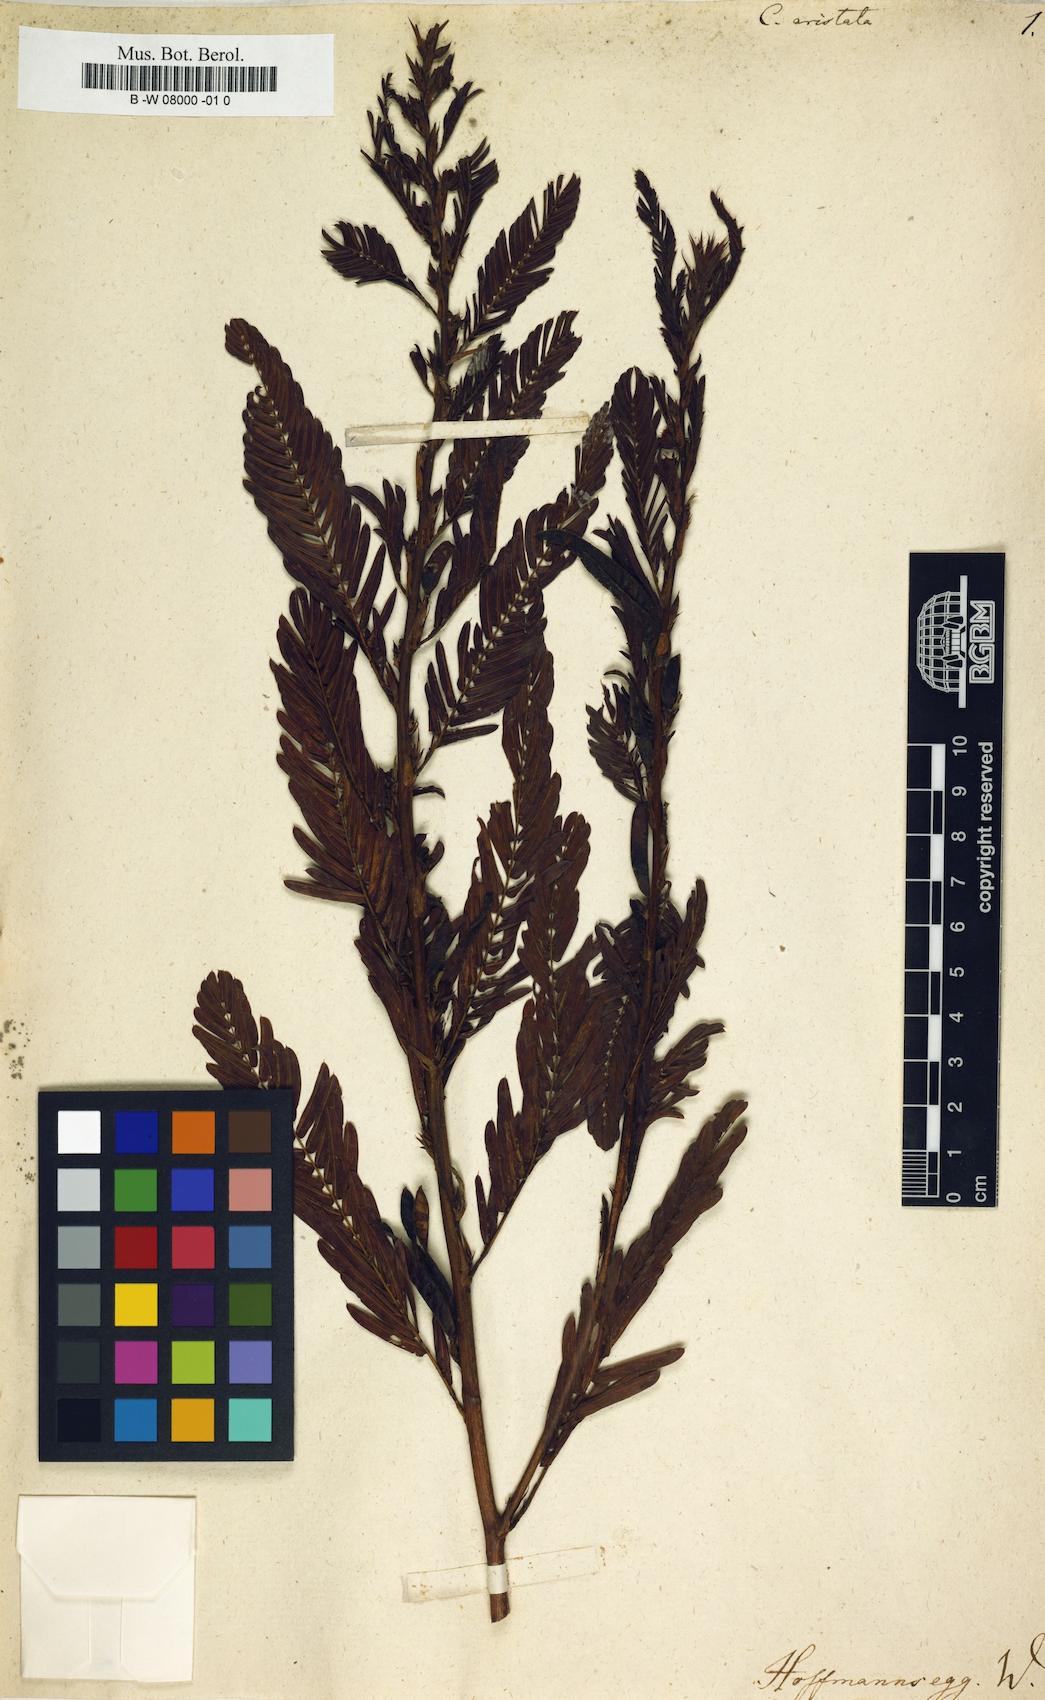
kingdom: Plantae
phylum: Tracheophyta
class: Magnoliopsida
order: Fabales
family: Fabaceae
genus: Chamaecrista
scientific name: Chamaecrista
